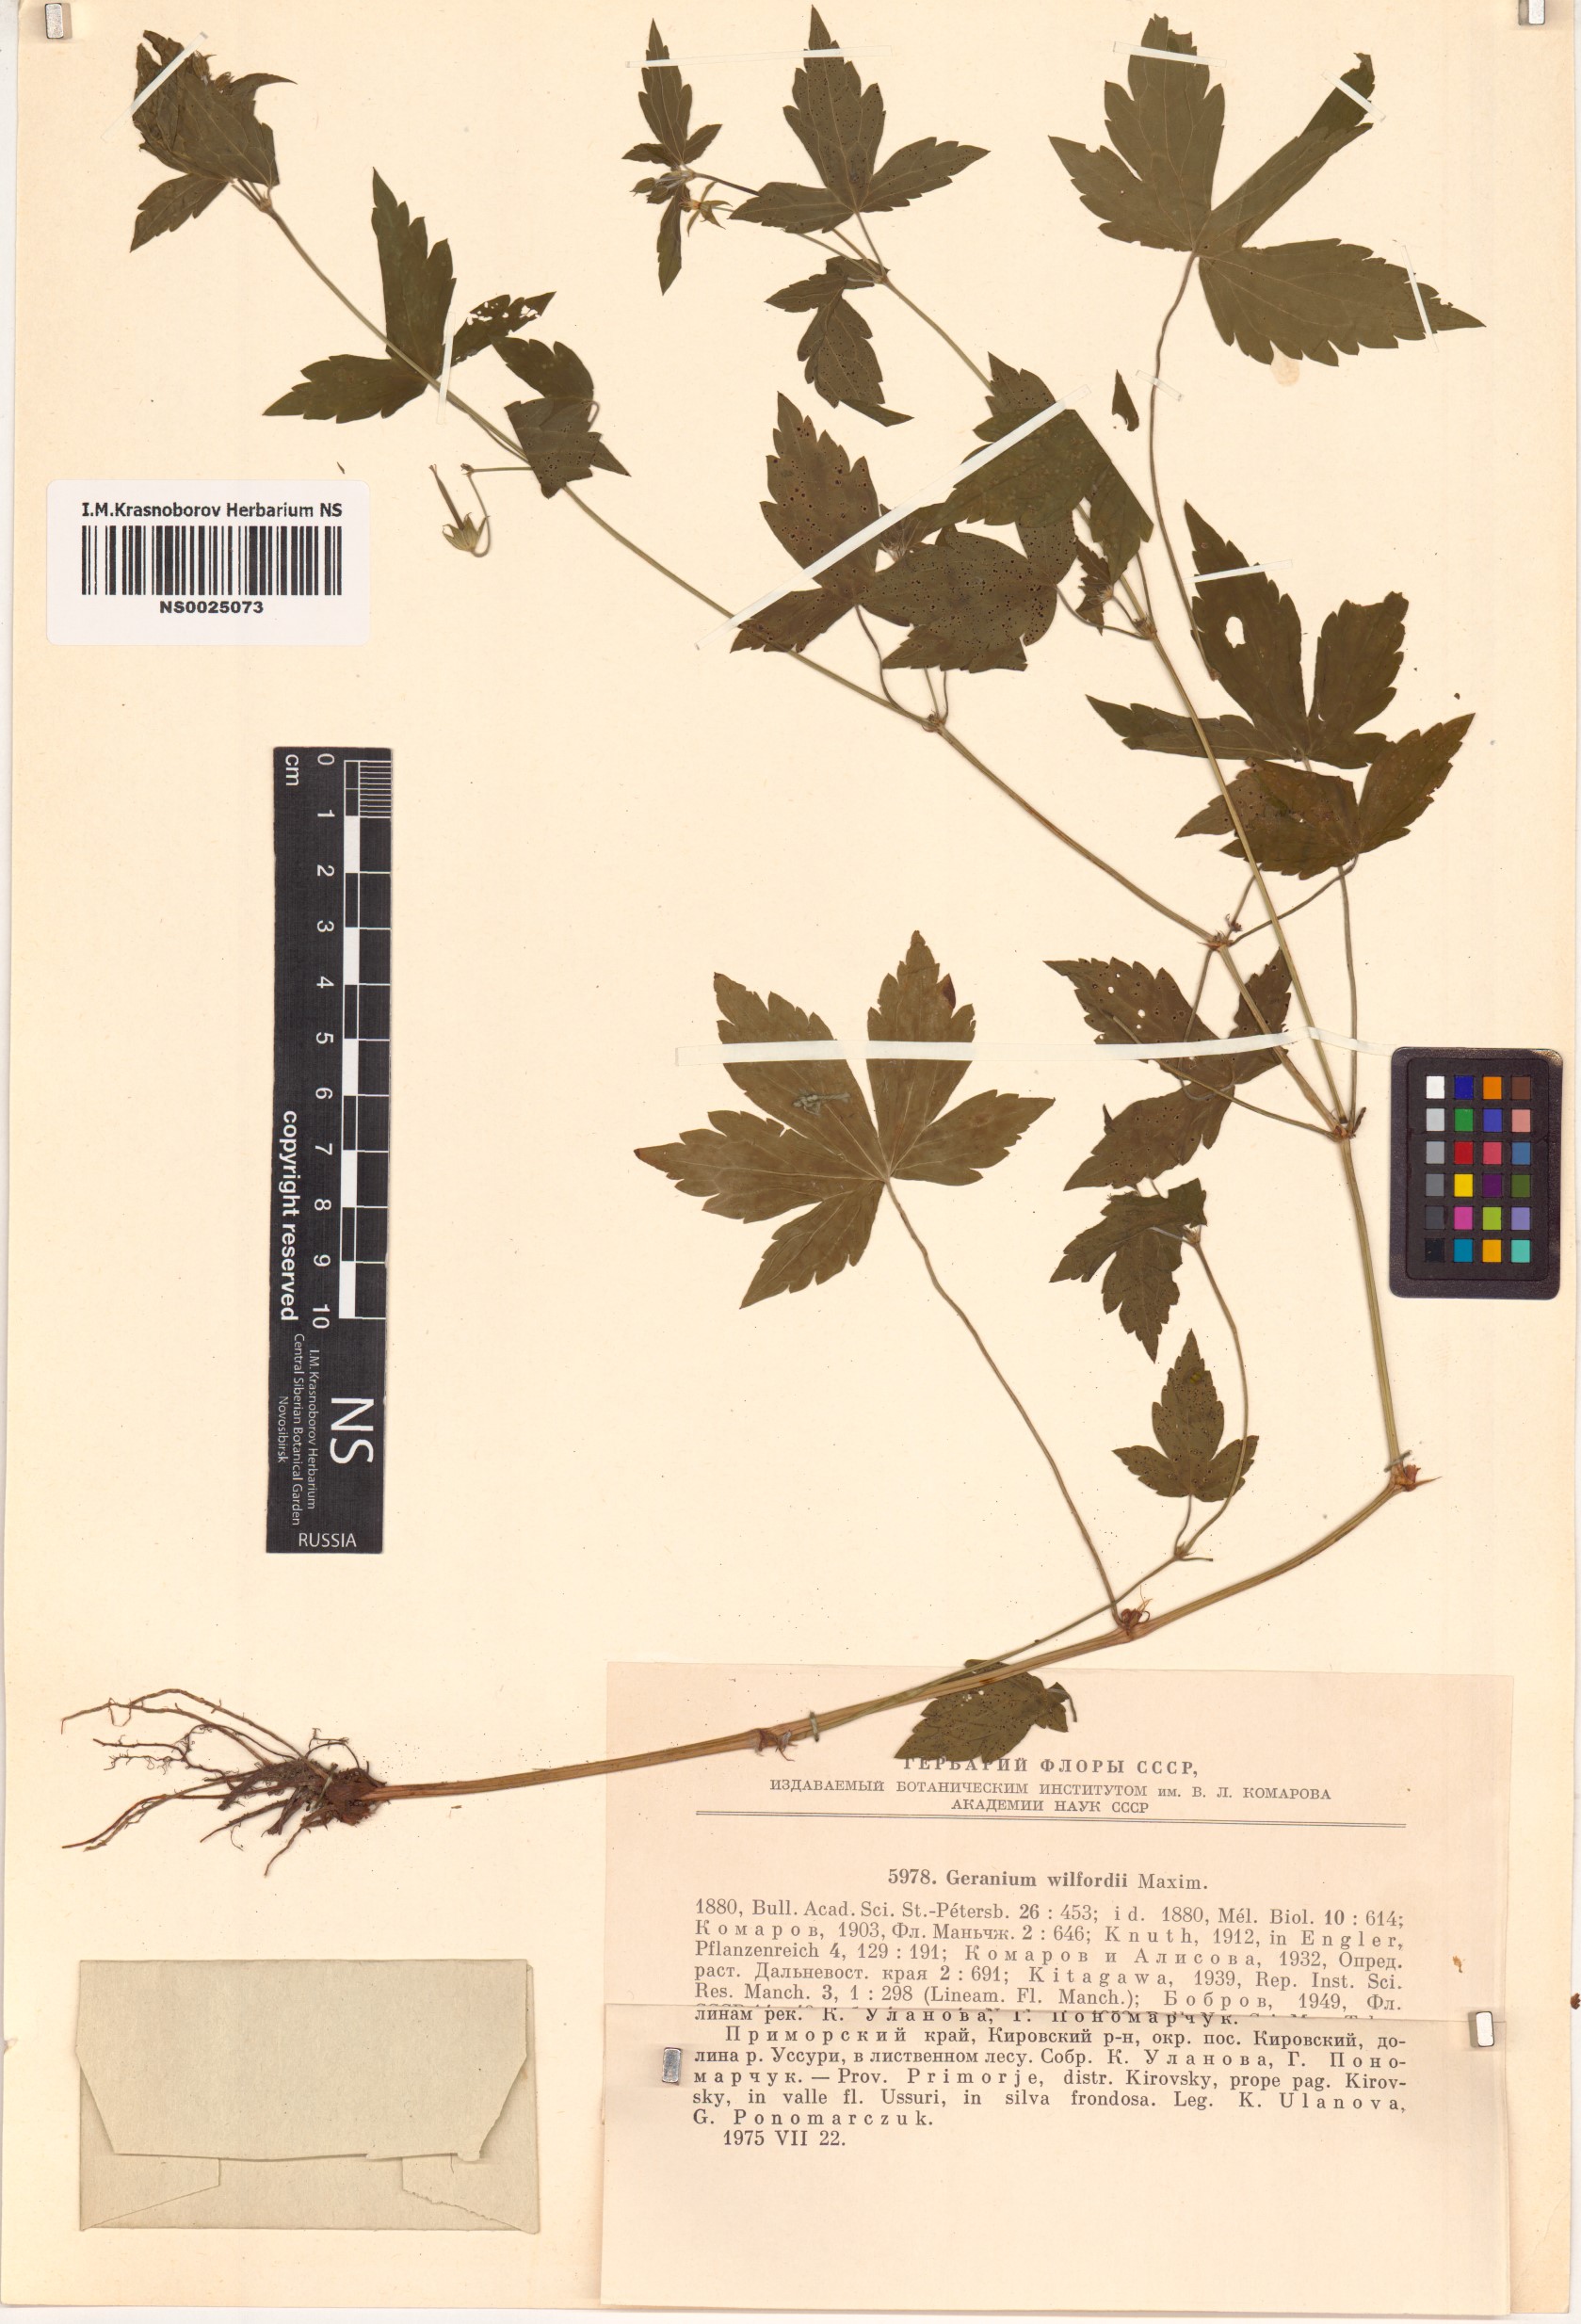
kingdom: Plantae
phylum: Tracheophyta
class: Magnoliopsida
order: Geraniales
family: Geraniaceae
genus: Geranium
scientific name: Geranium wilfordii
